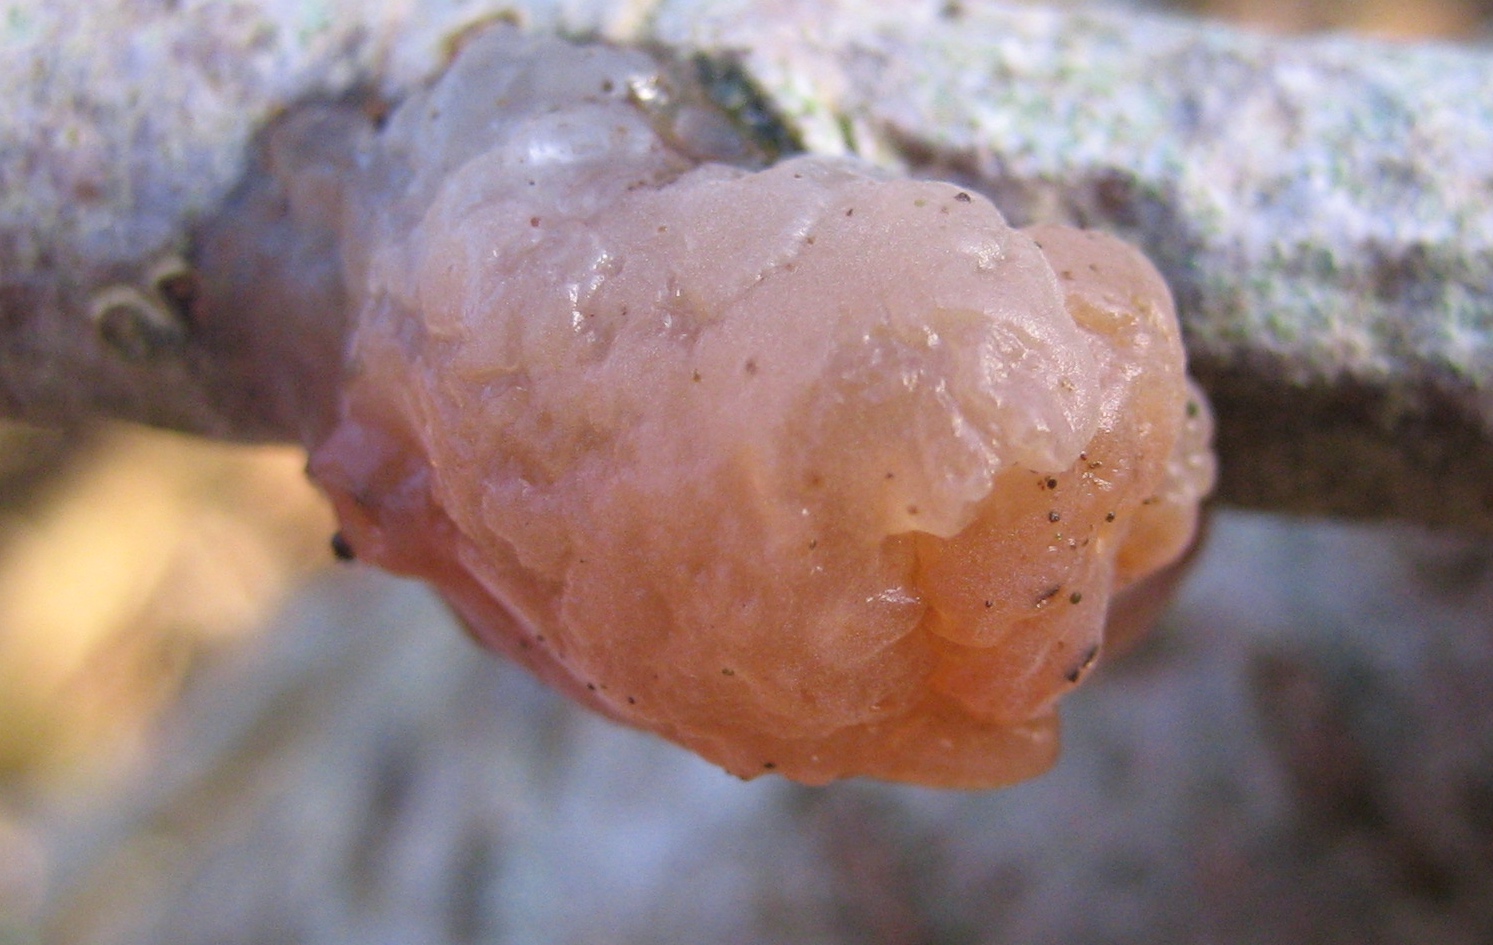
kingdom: Fungi
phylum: Basidiomycota
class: Agaricomycetes
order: Auriculariales
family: Hyaloriaceae
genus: Myxarium
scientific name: Myxarium hyalinum
